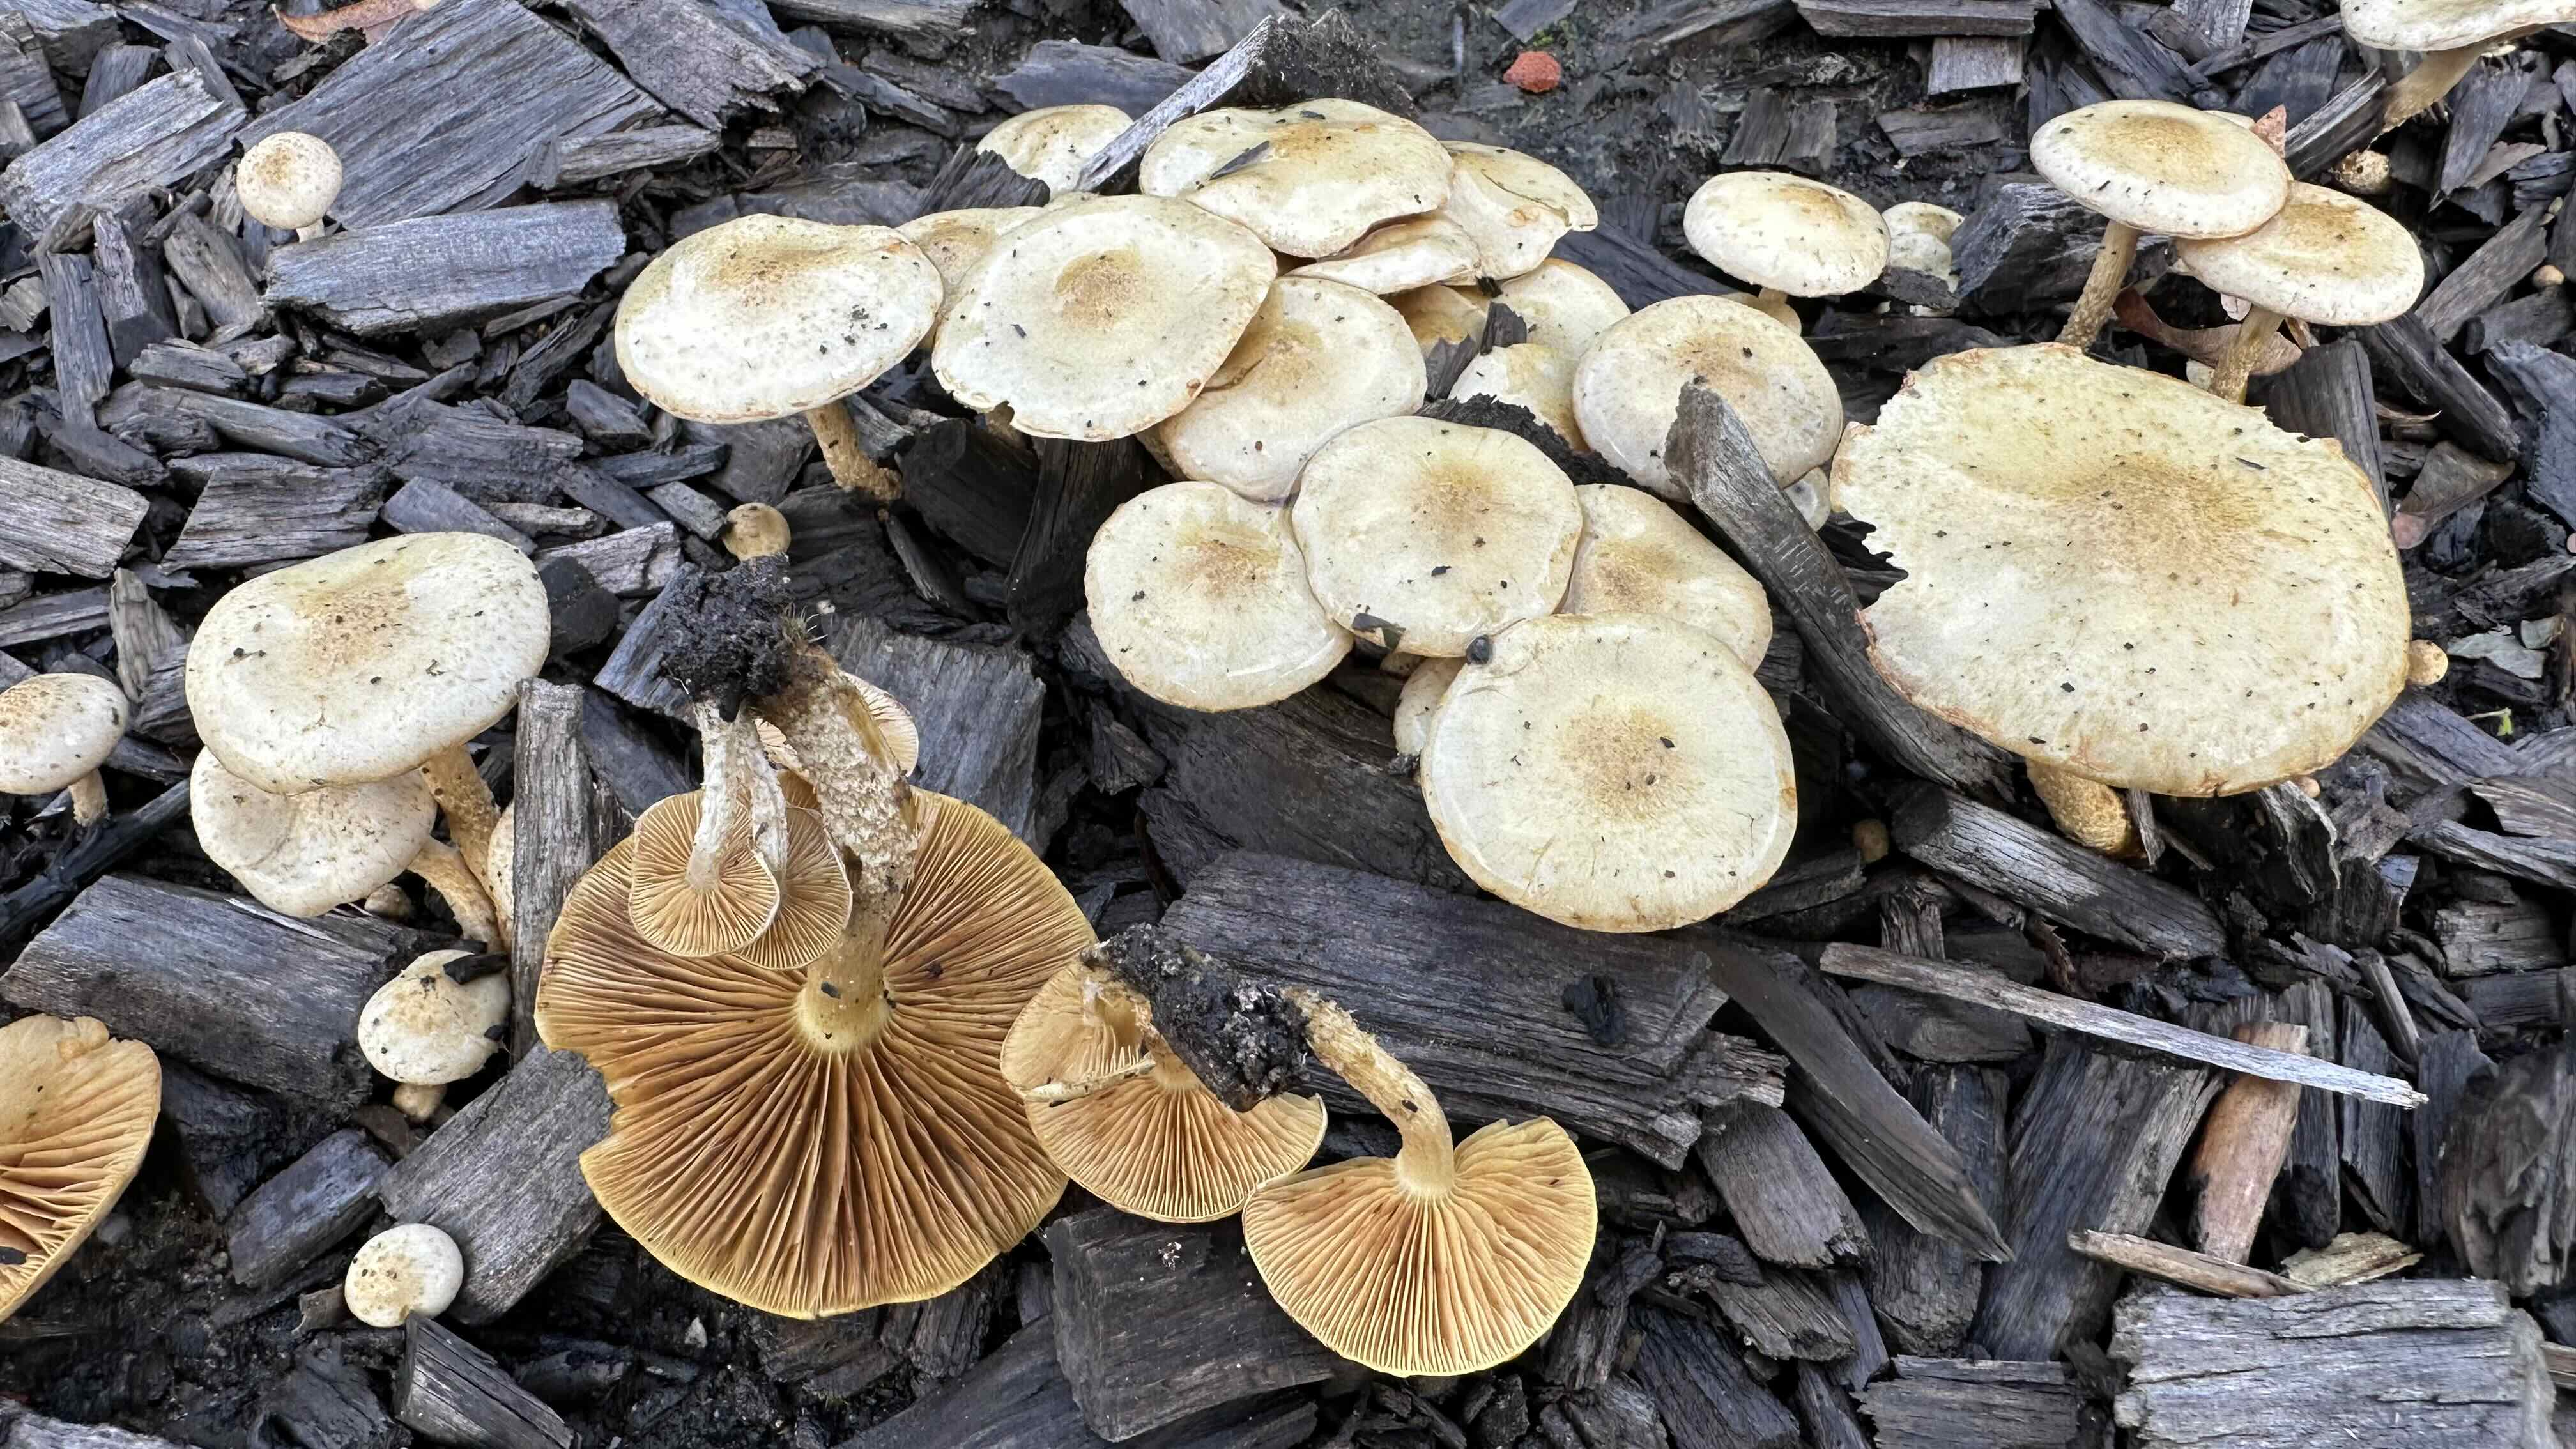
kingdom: Fungi
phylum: Basidiomycota
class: Agaricomycetes
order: Agaricales
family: Strophariaceae
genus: Pholiota
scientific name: Pholiota gummosa
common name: grøngul skælhat
